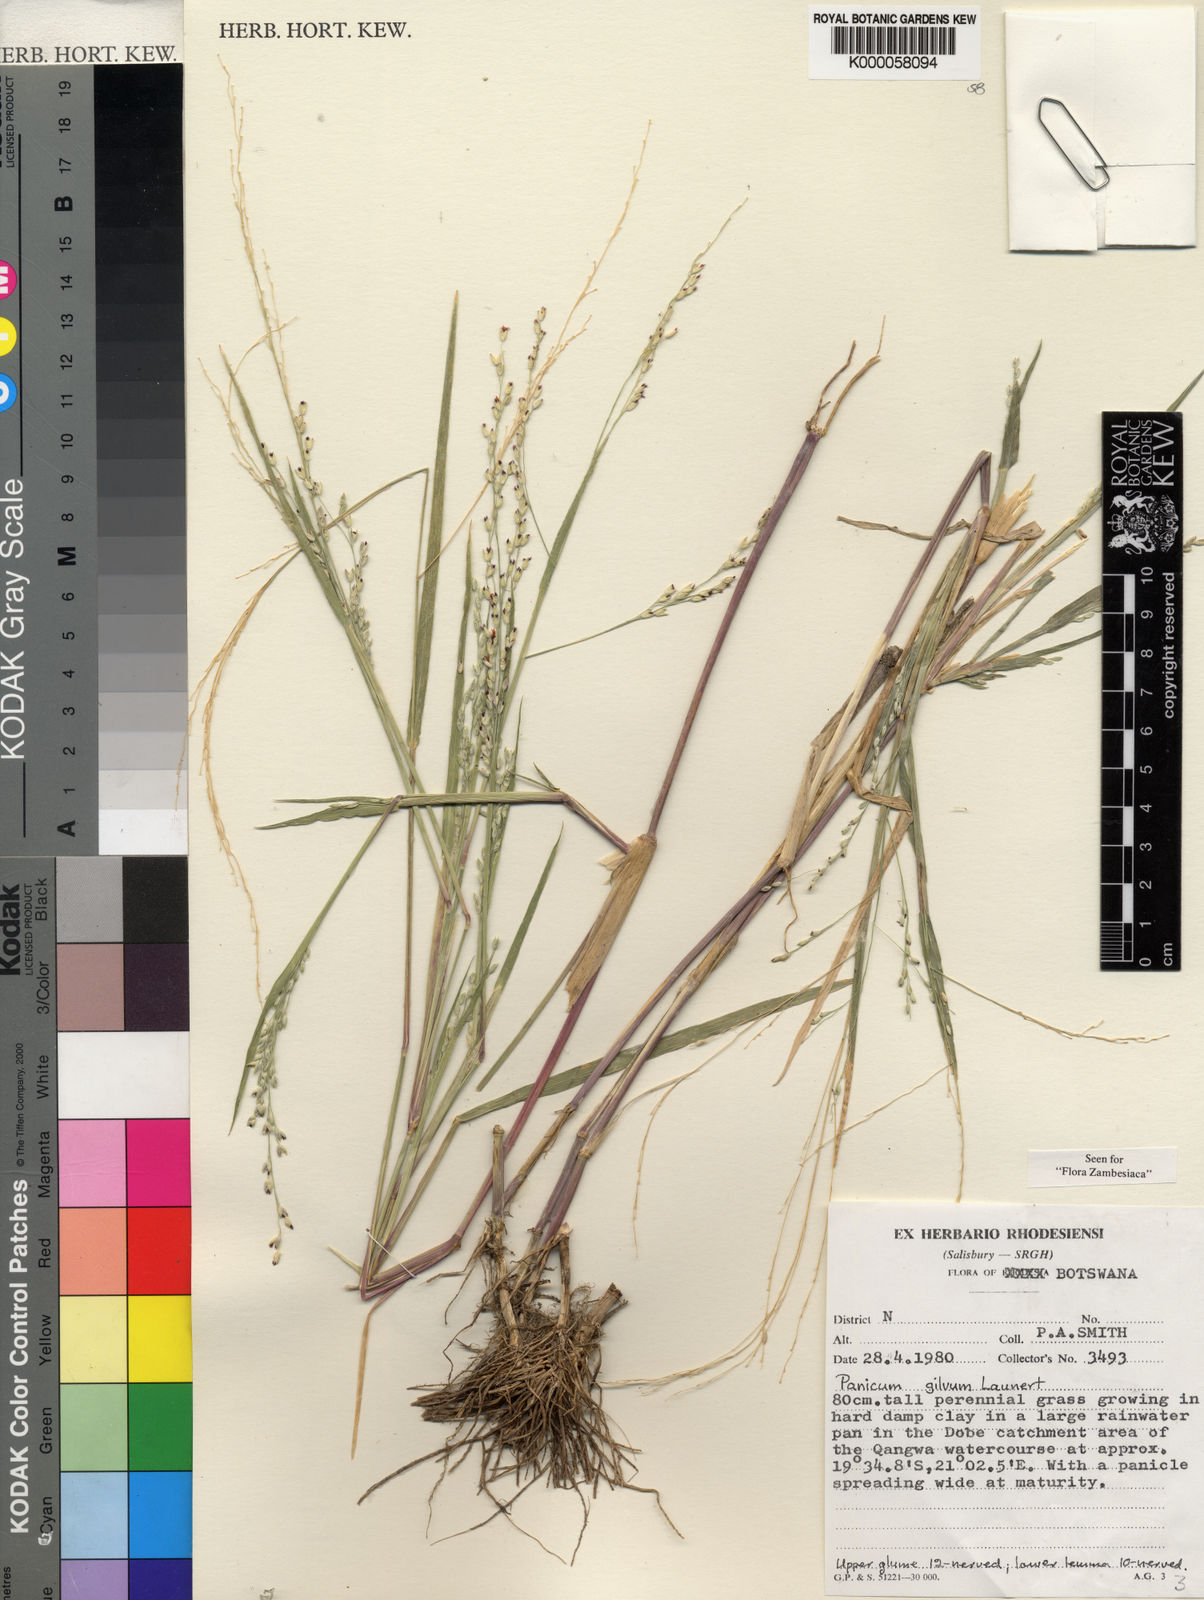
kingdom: Plantae
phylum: Tracheophyta
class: Liliopsida
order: Poales
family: Poaceae
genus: Panicum
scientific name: Panicum gilvum
